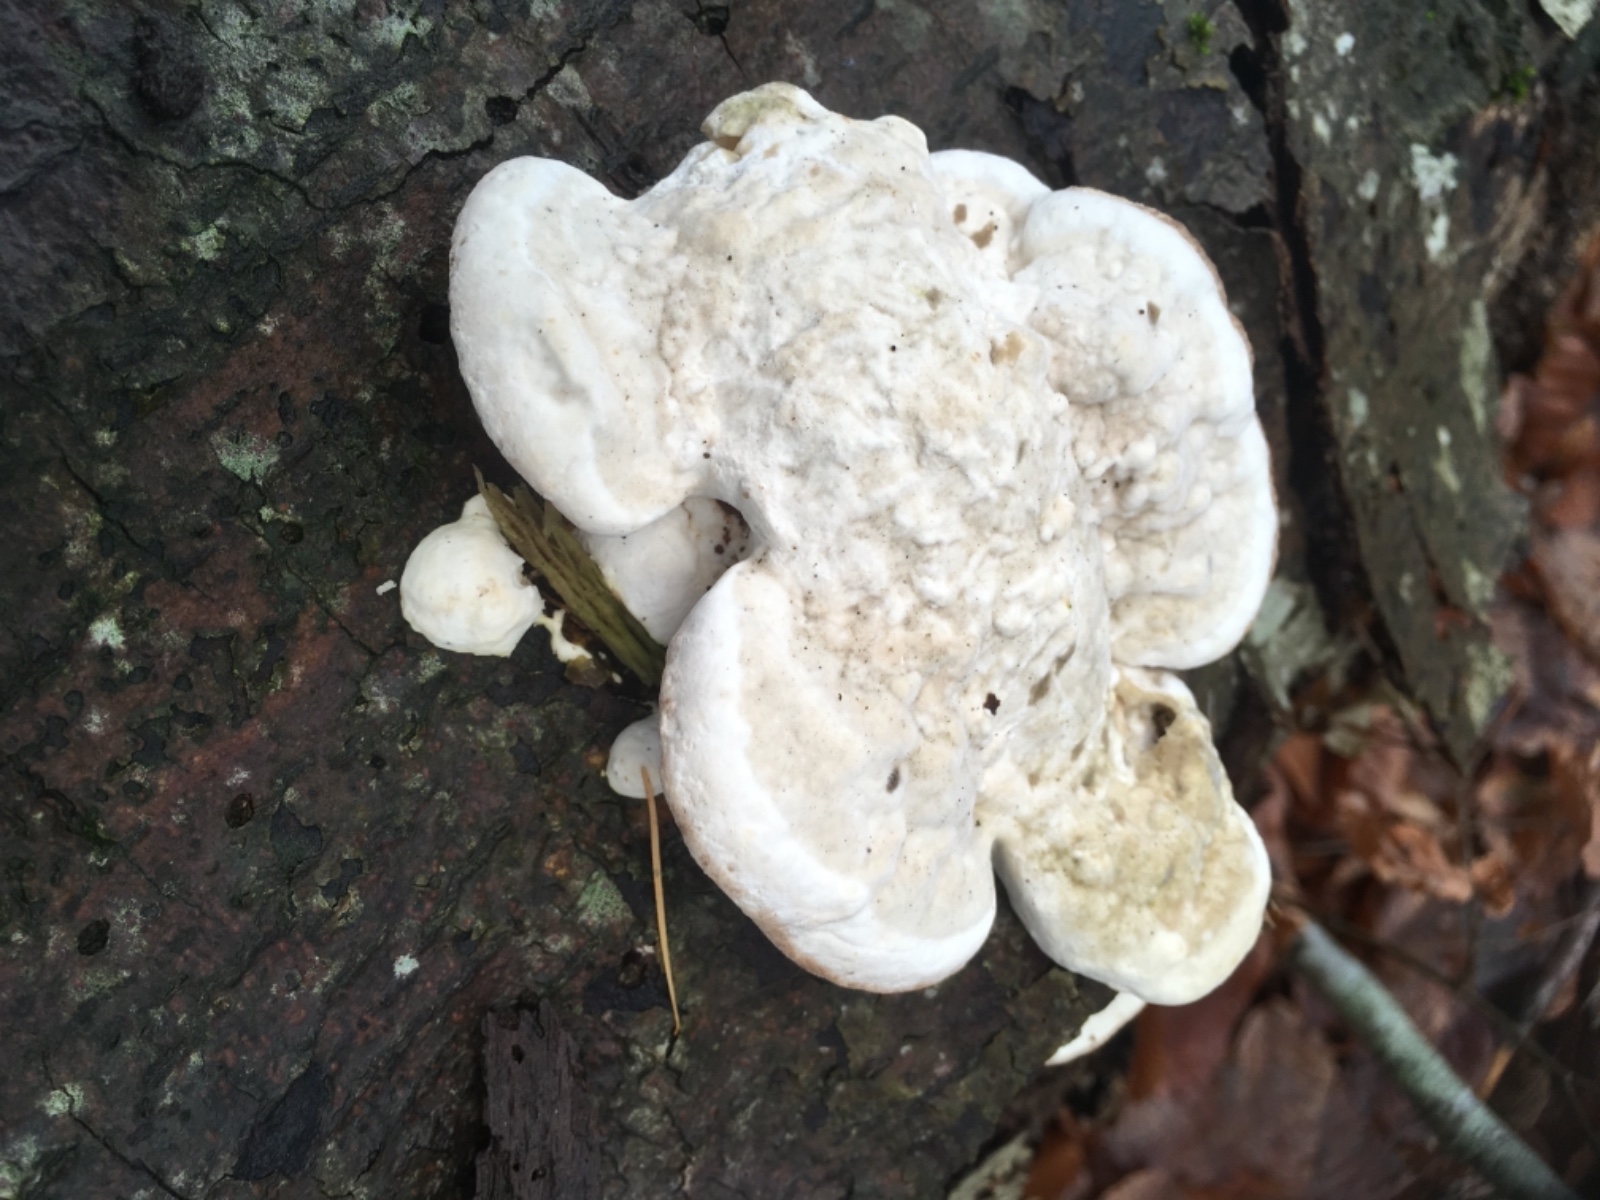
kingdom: Fungi
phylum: Basidiomycota
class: Agaricomycetes
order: Polyporales
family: Polyporaceae
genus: Trametes
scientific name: Trametes gibbosa
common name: puklet læderporesvamp
